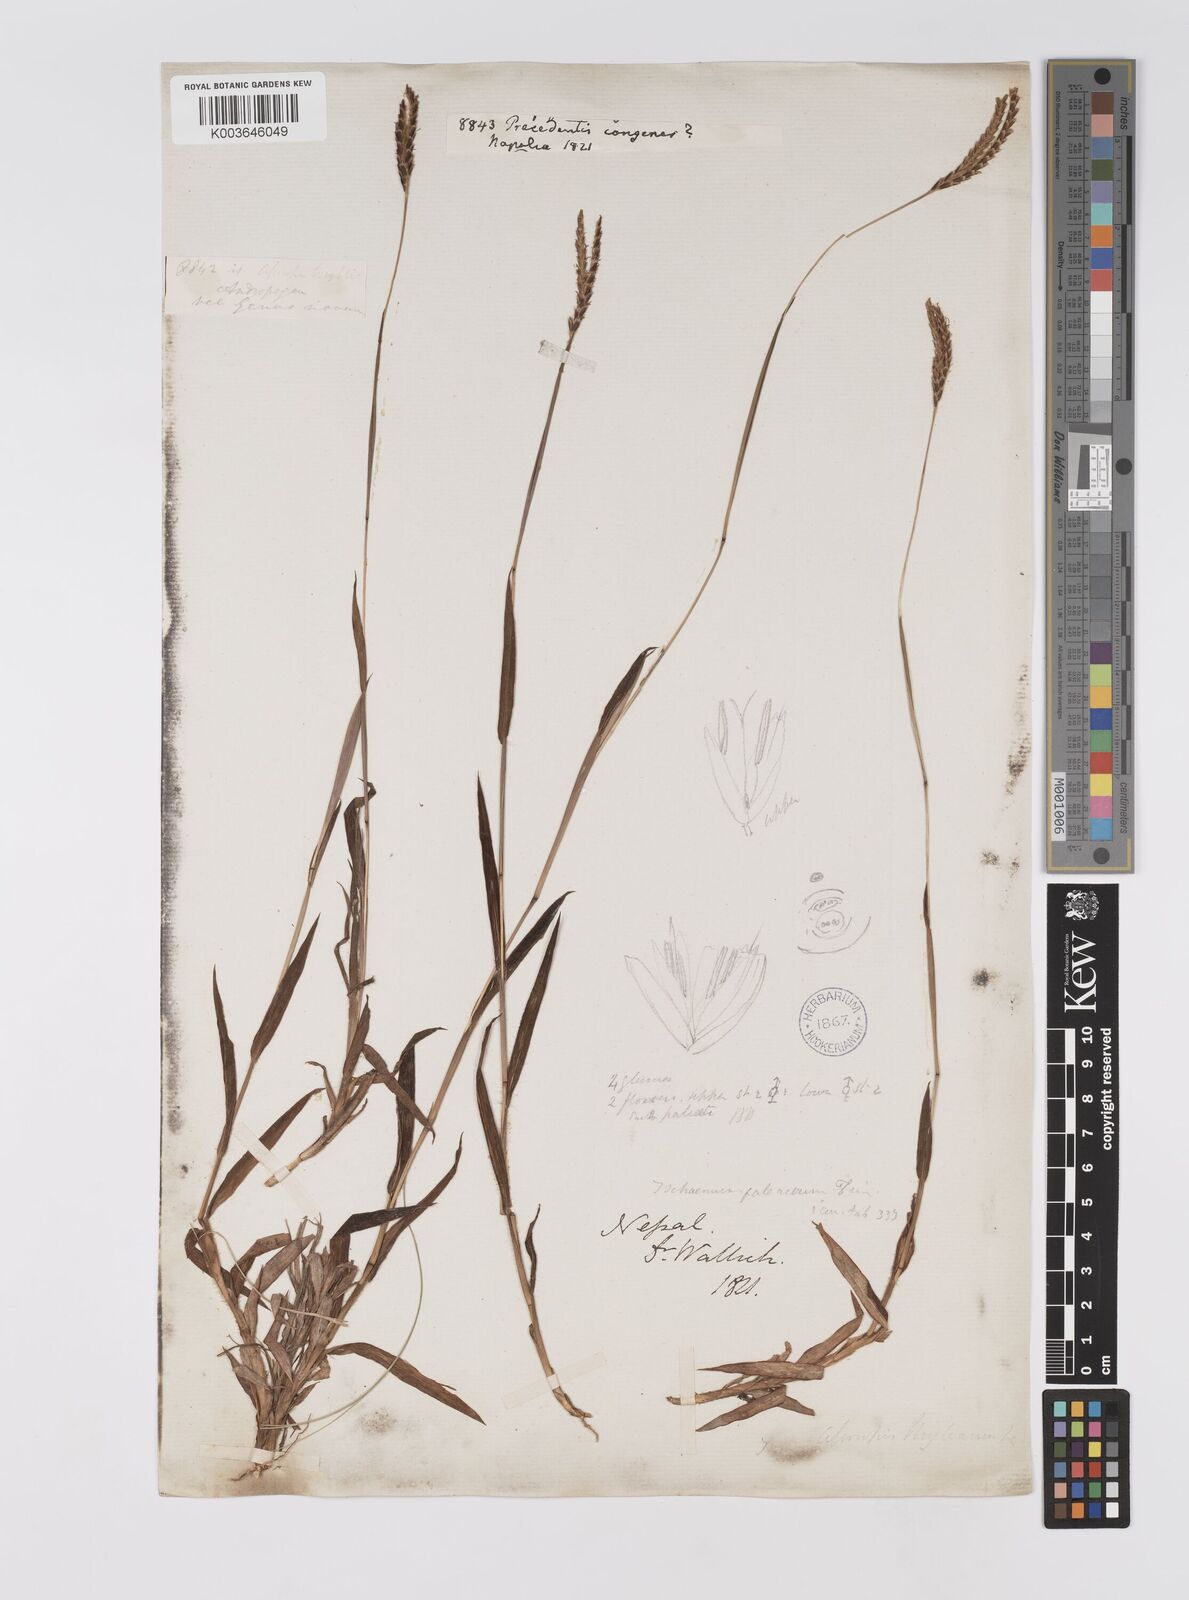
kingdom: Plantae
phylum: Tracheophyta
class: Liliopsida
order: Poales
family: Poaceae
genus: Apocopis
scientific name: Apocopis paleaceus
